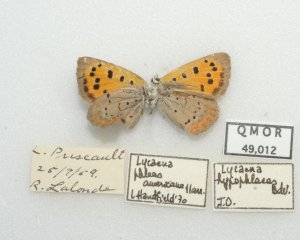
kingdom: Animalia
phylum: Arthropoda
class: Insecta
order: Lepidoptera
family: Lycaenidae
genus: Lycaena
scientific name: Lycaena phlaeas
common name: American Copper
